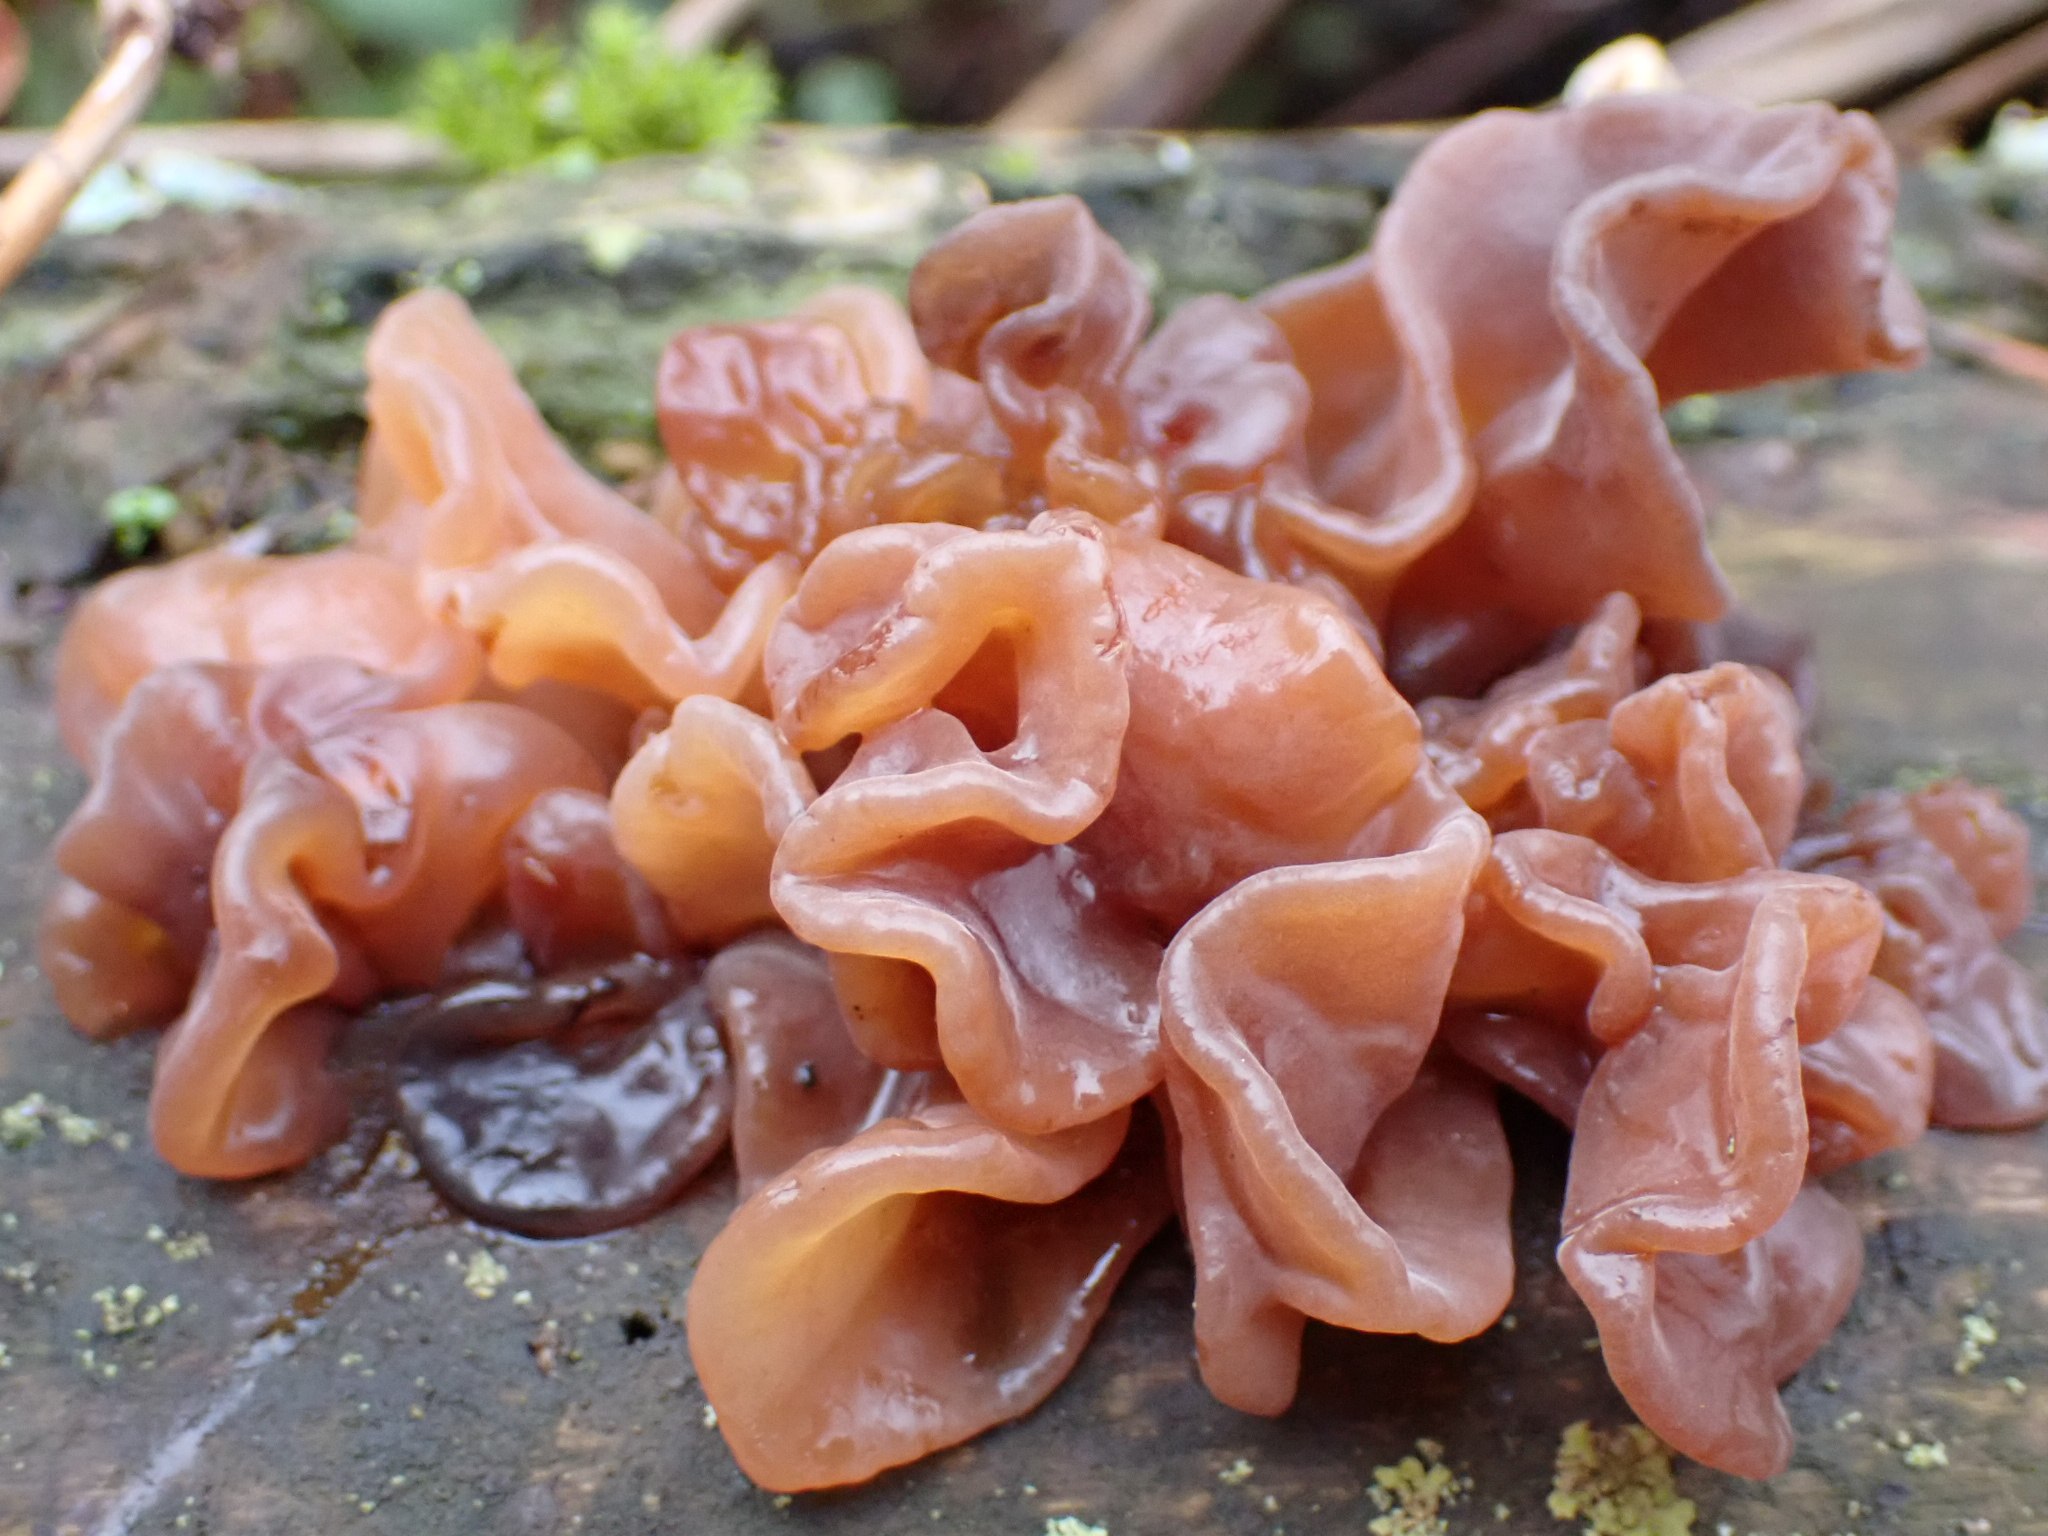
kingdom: Fungi
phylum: Basidiomycota
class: Tremellomycetes
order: Tremellales
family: Tremellaceae
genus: Phaeotremella
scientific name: Phaeotremella frondosa
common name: kæmpe-bævresvamp
